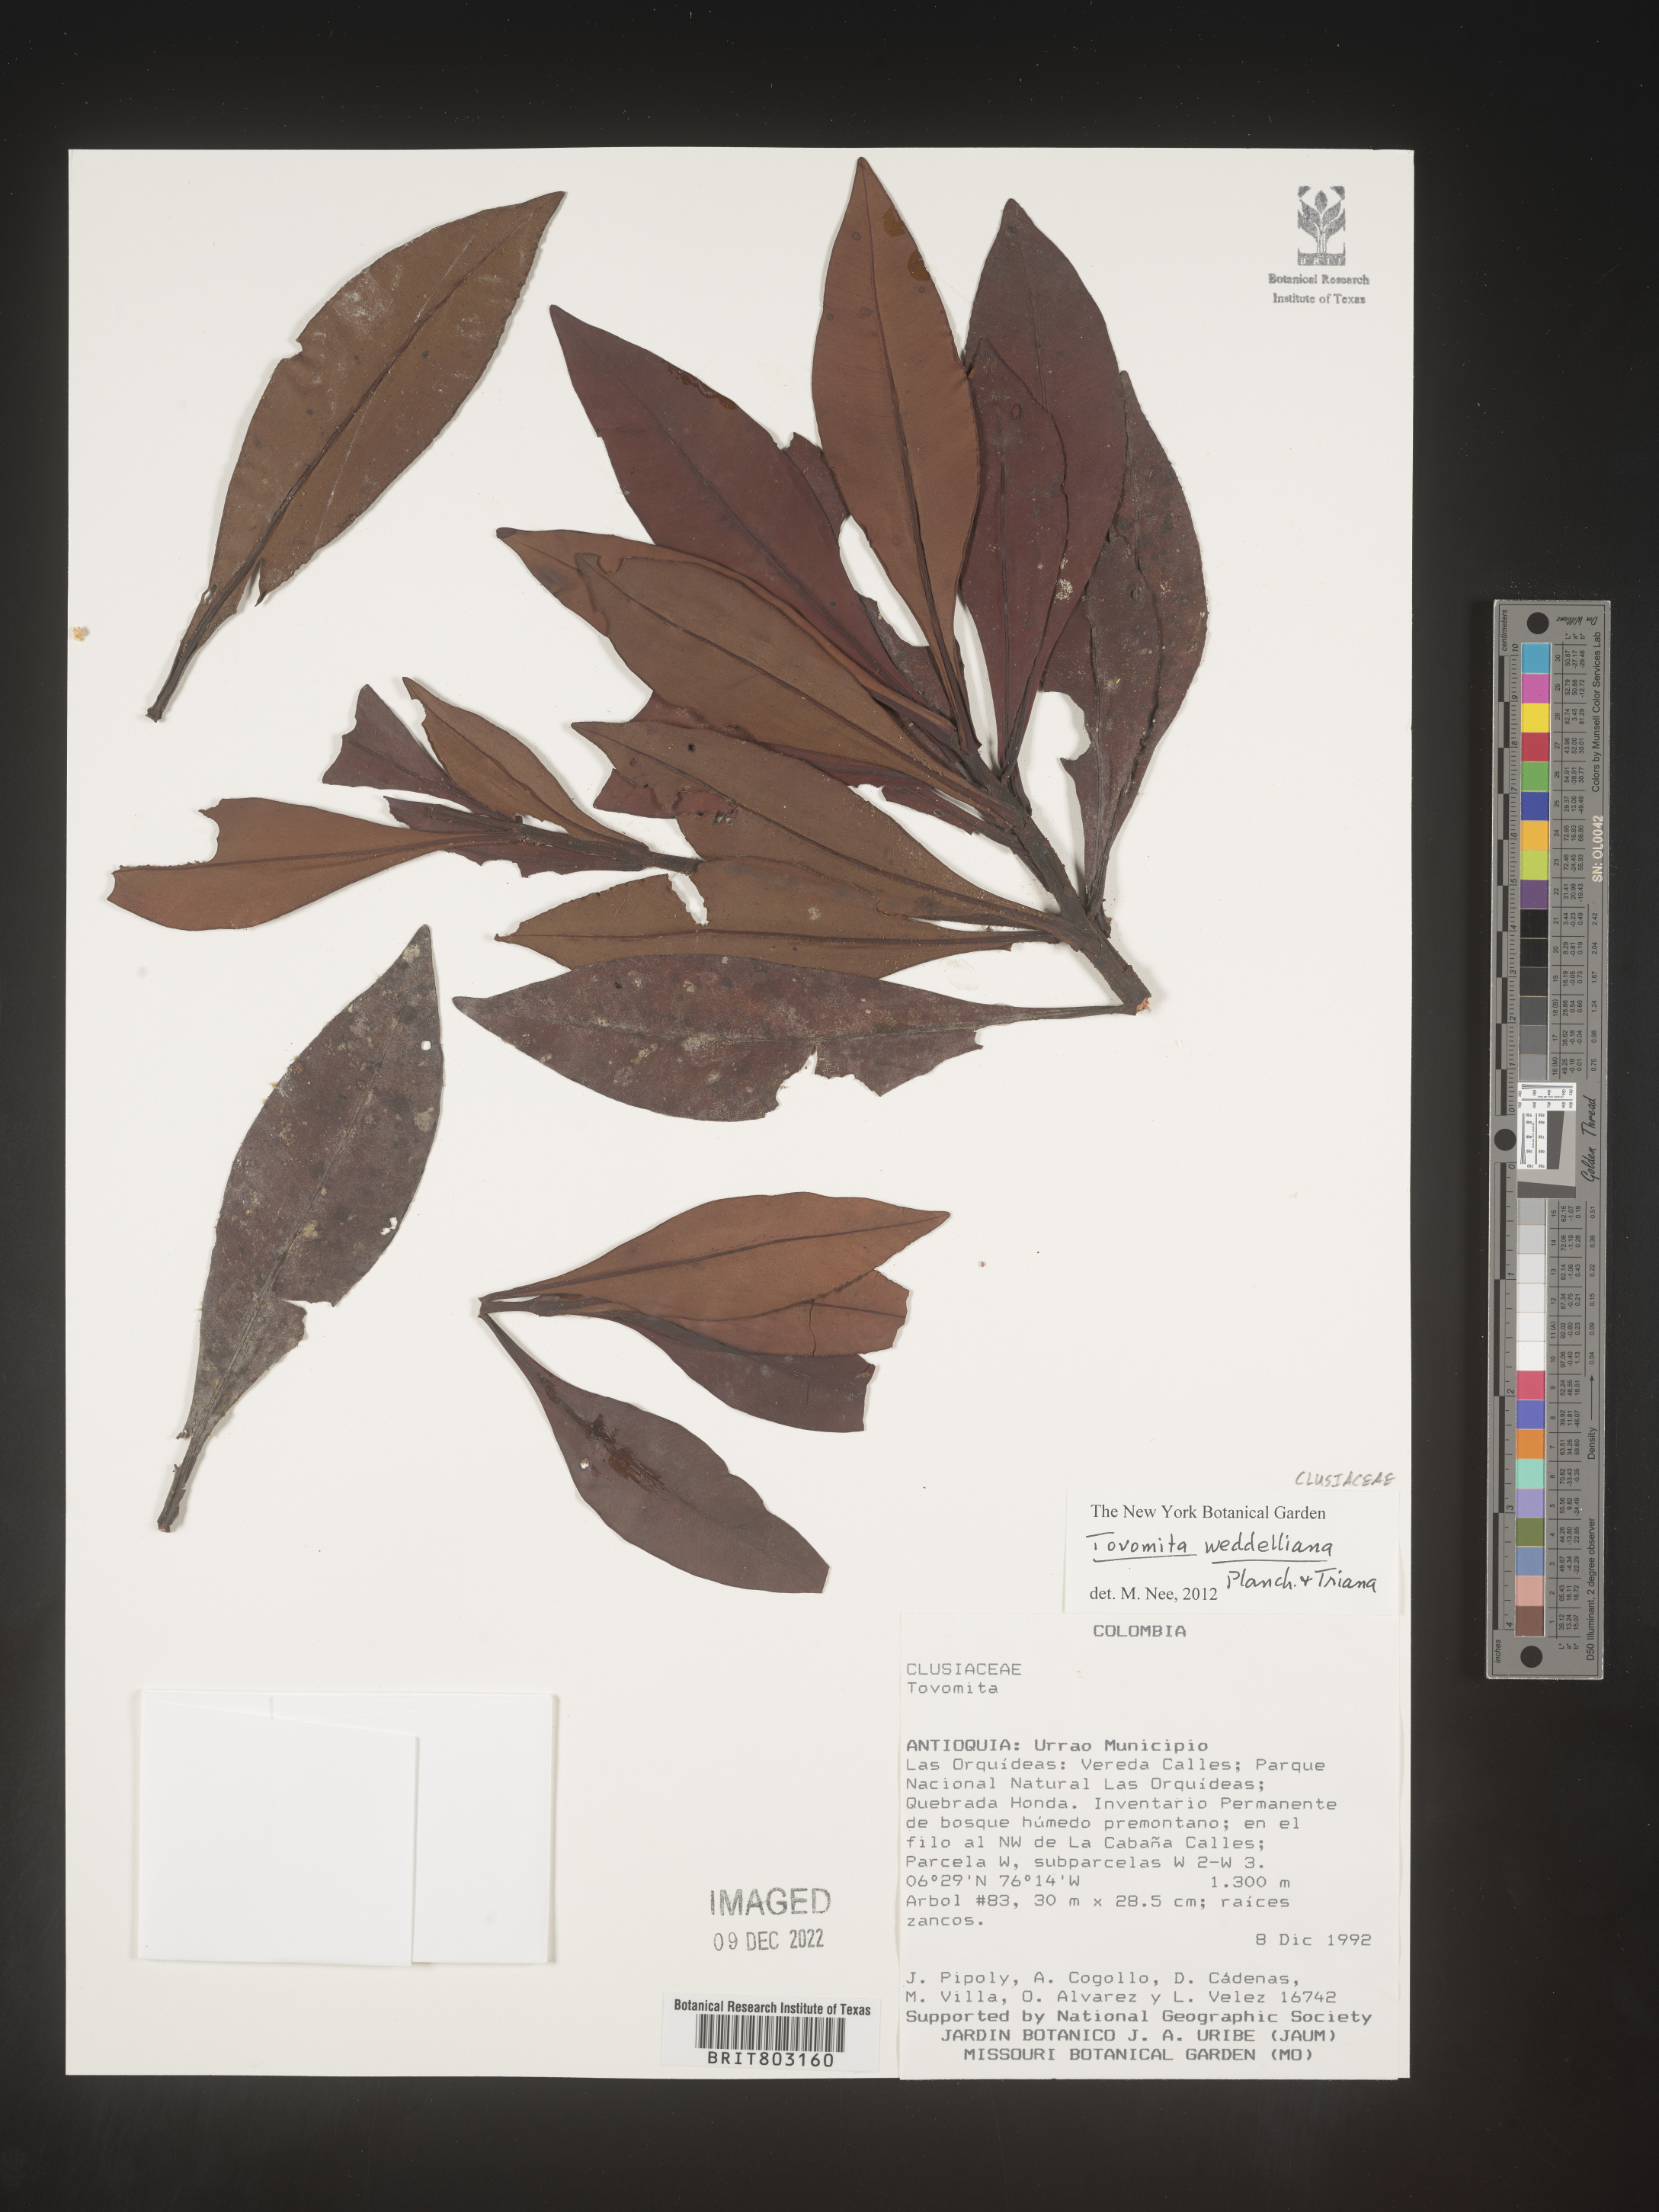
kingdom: Plantae
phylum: Tracheophyta
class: Magnoliopsida
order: Malpighiales
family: Clusiaceae
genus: Arawakia
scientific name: Arawakia weddelliana
